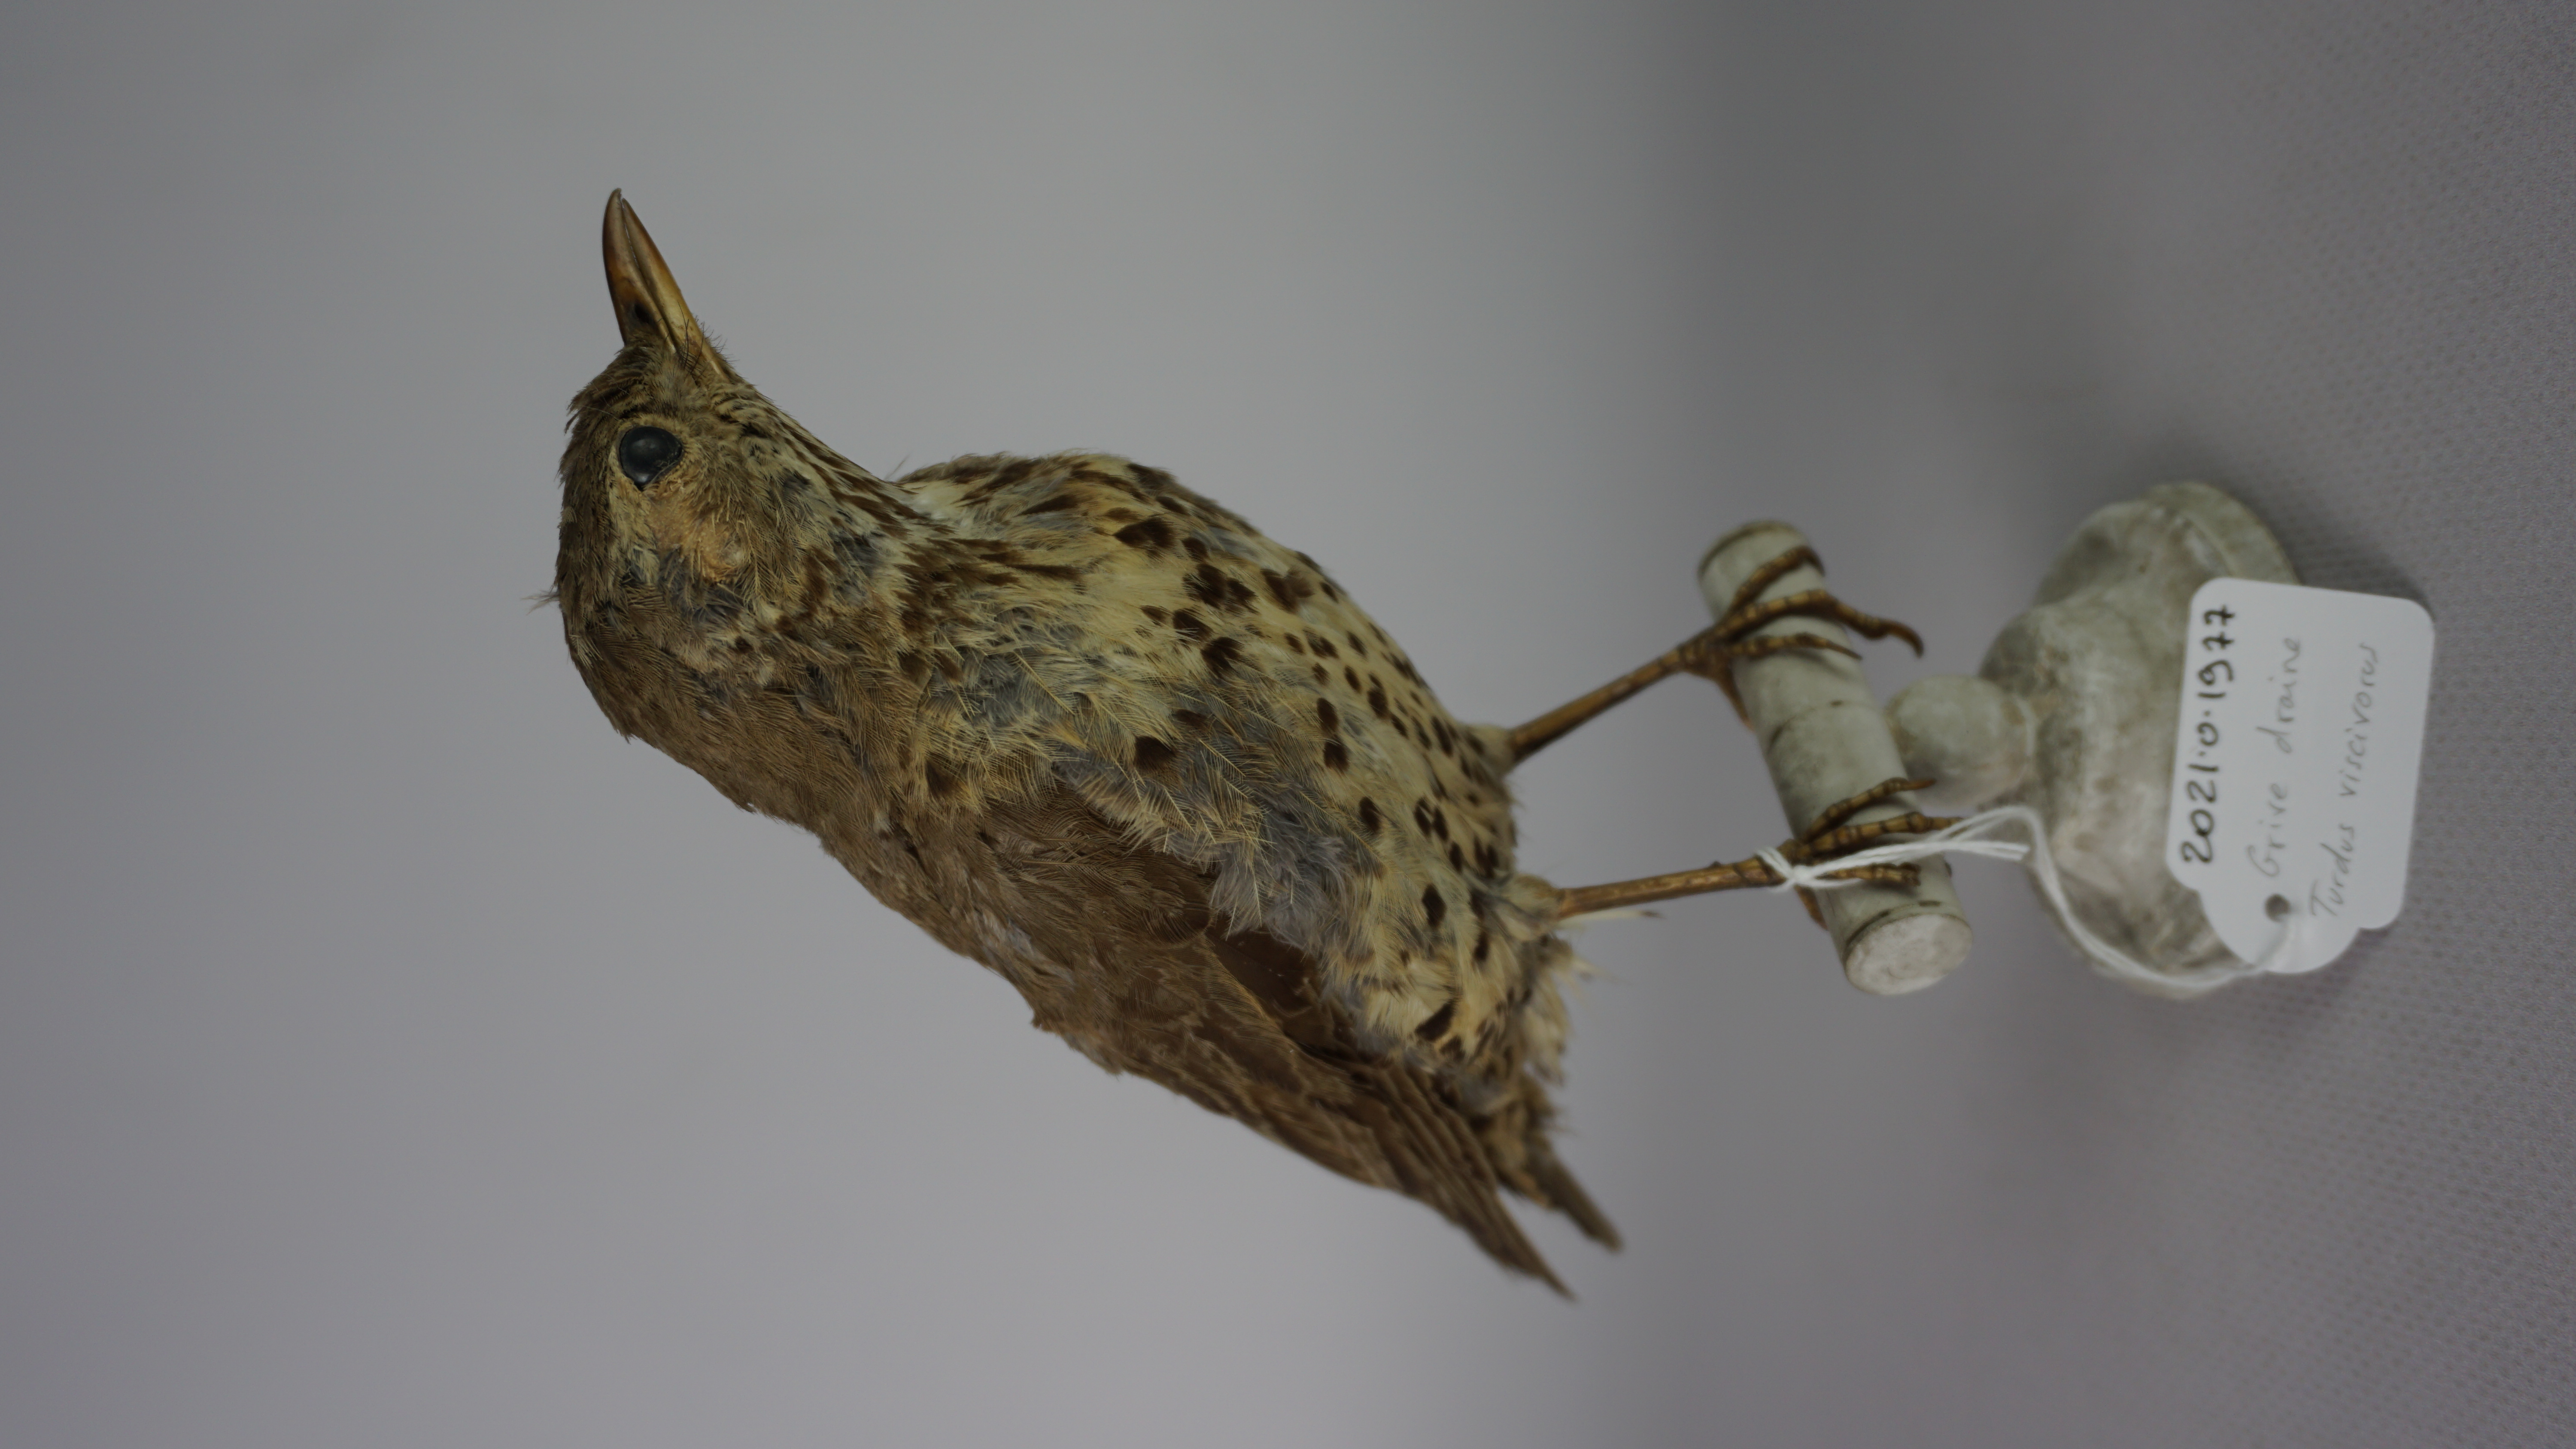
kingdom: Animalia
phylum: Chordata
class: Aves
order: Passeriformes
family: Turdidae
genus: Turdus
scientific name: Turdus viscivorus
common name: Mistle thrush
